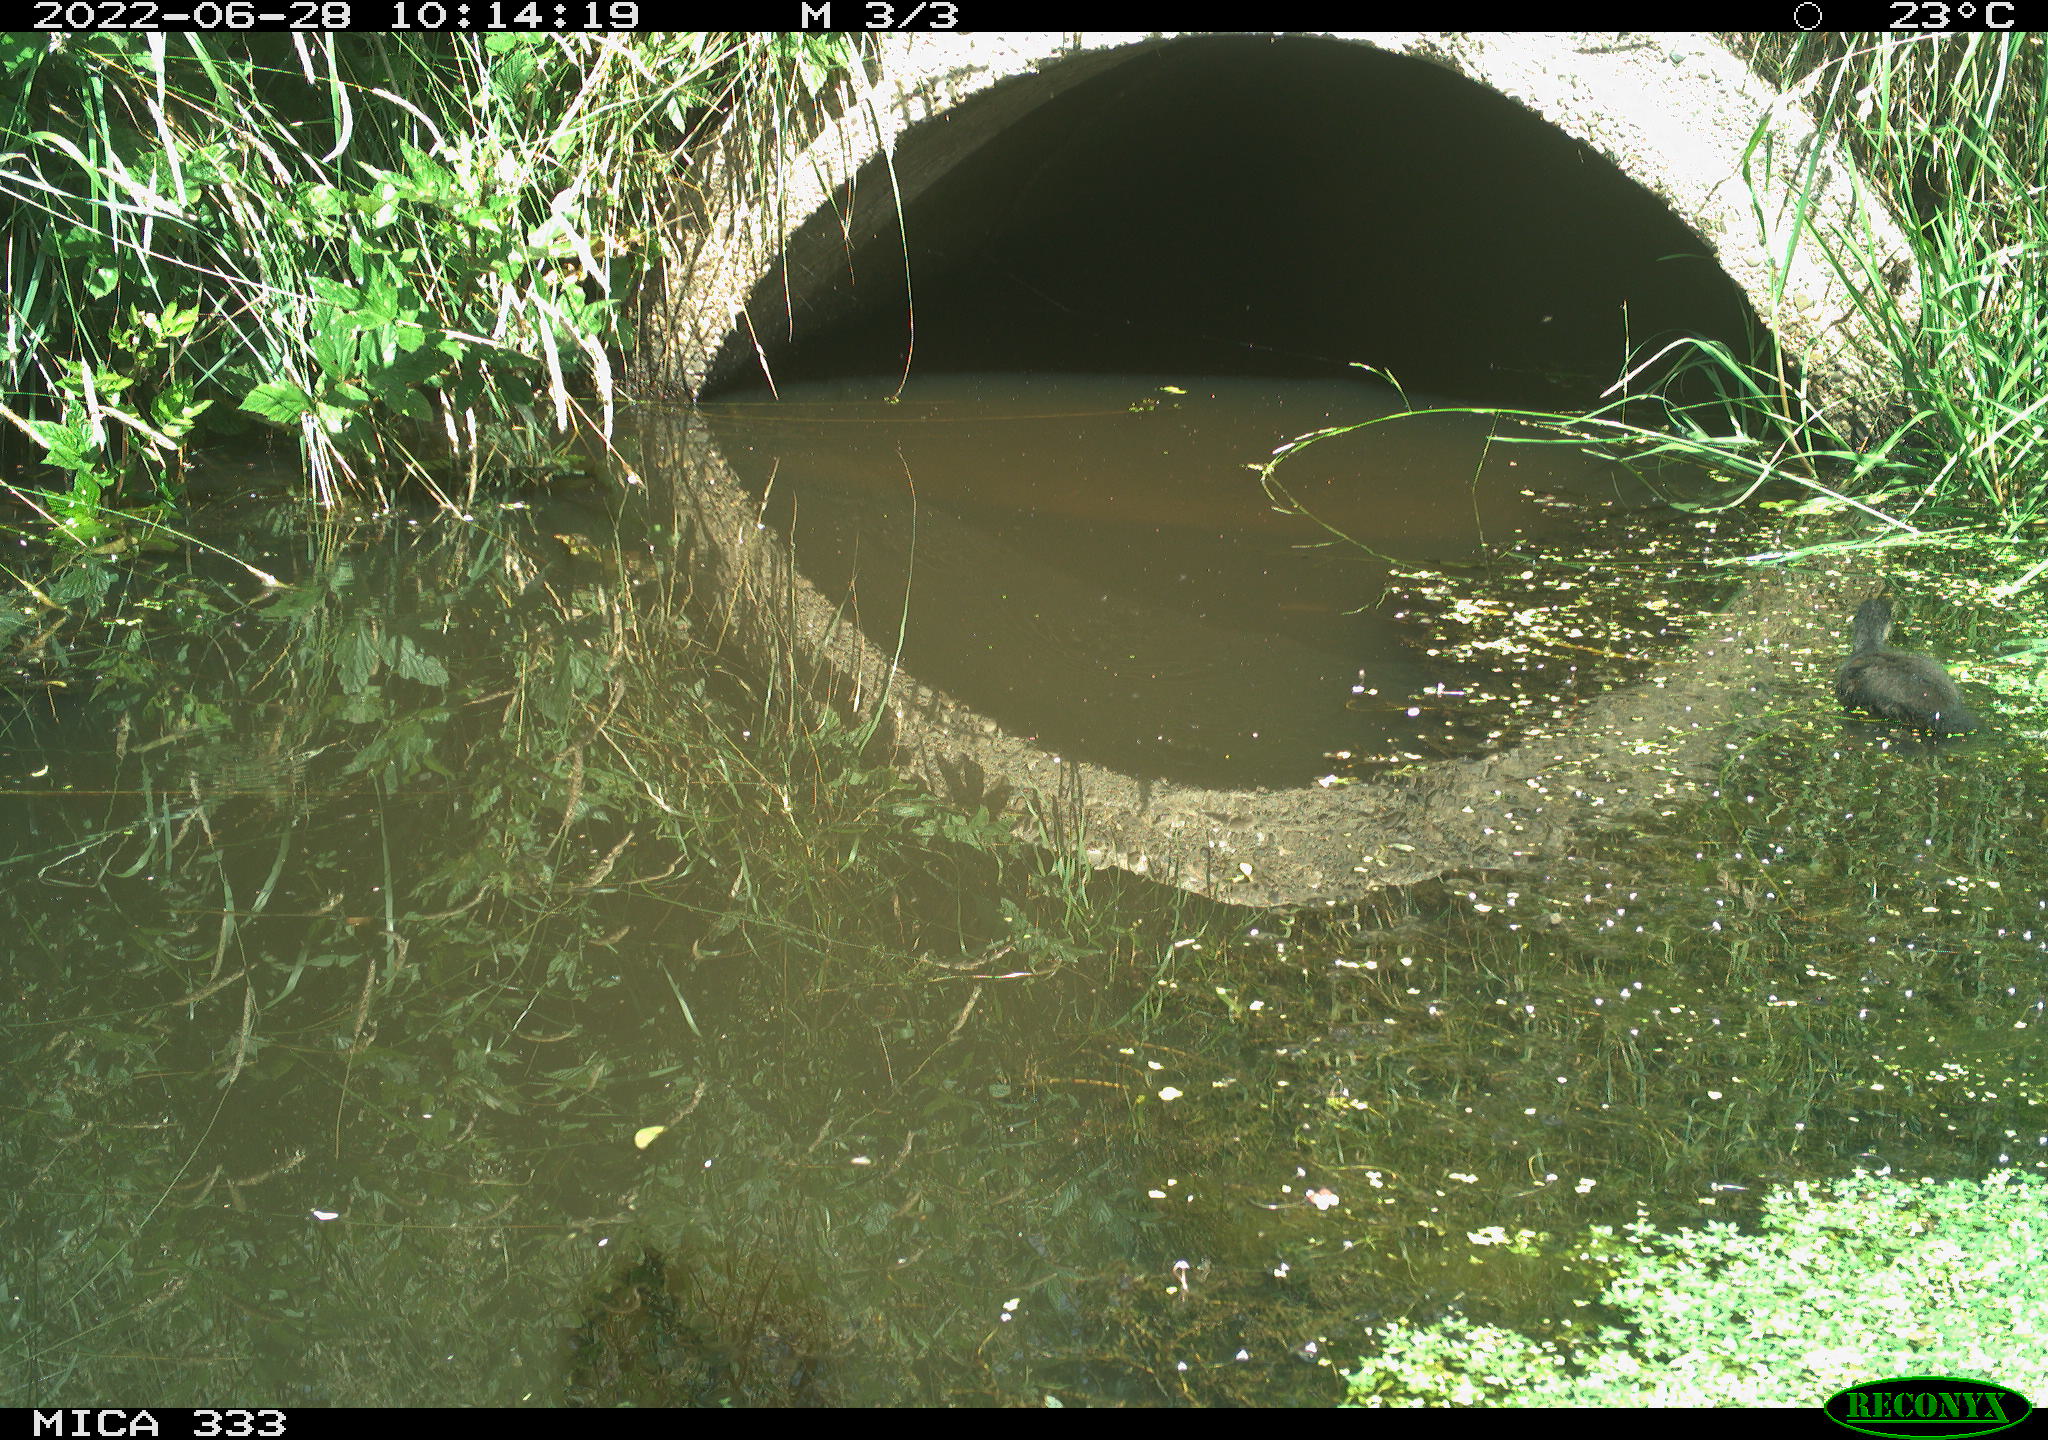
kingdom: Animalia
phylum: Chordata
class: Aves
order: Gruiformes
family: Rallidae
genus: Gallinula
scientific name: Gallinula chloropus
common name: Common moorhen
